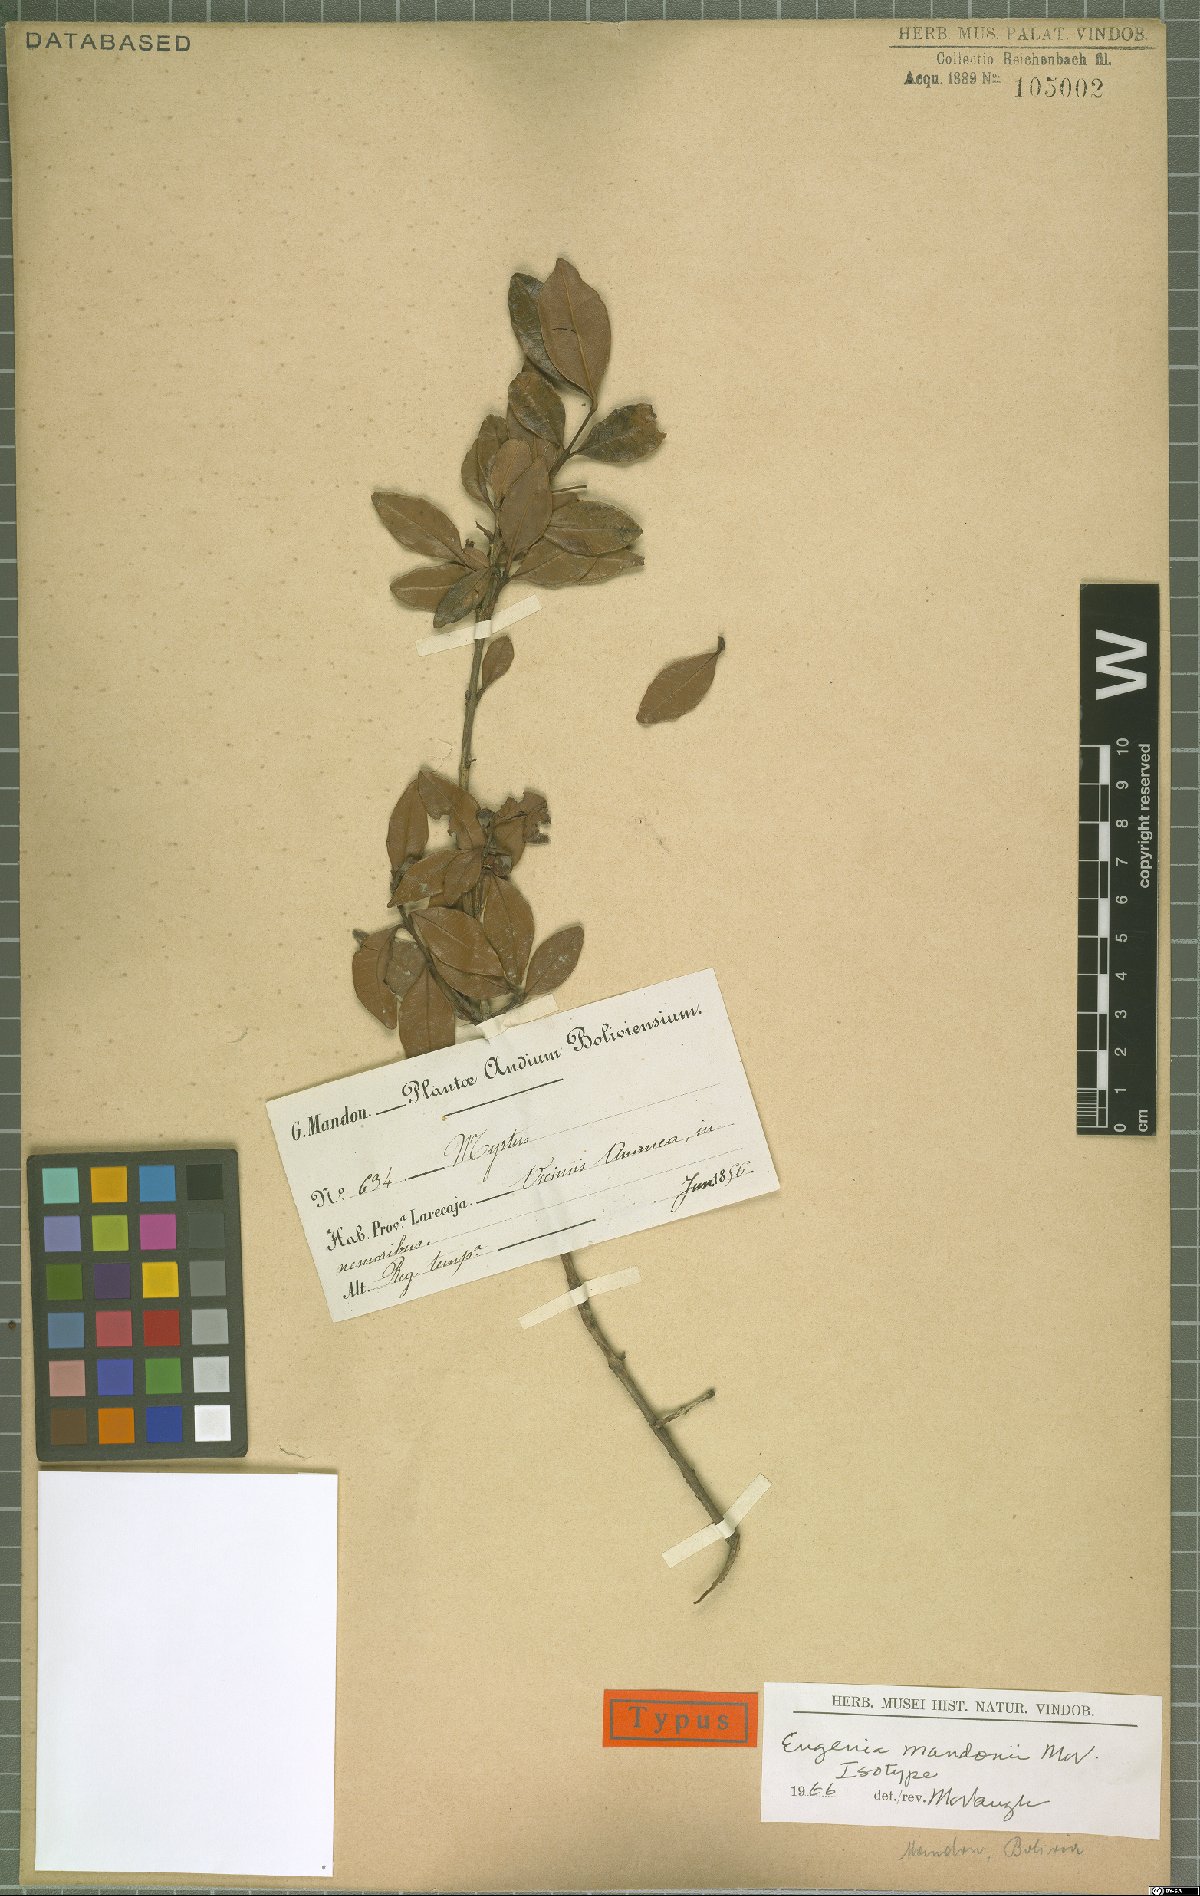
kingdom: Plantae
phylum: Tracheophyta
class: Magnoliopsida
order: Myrtales
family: Myrtaceae
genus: Eugenia
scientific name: Eugenia mandonii
